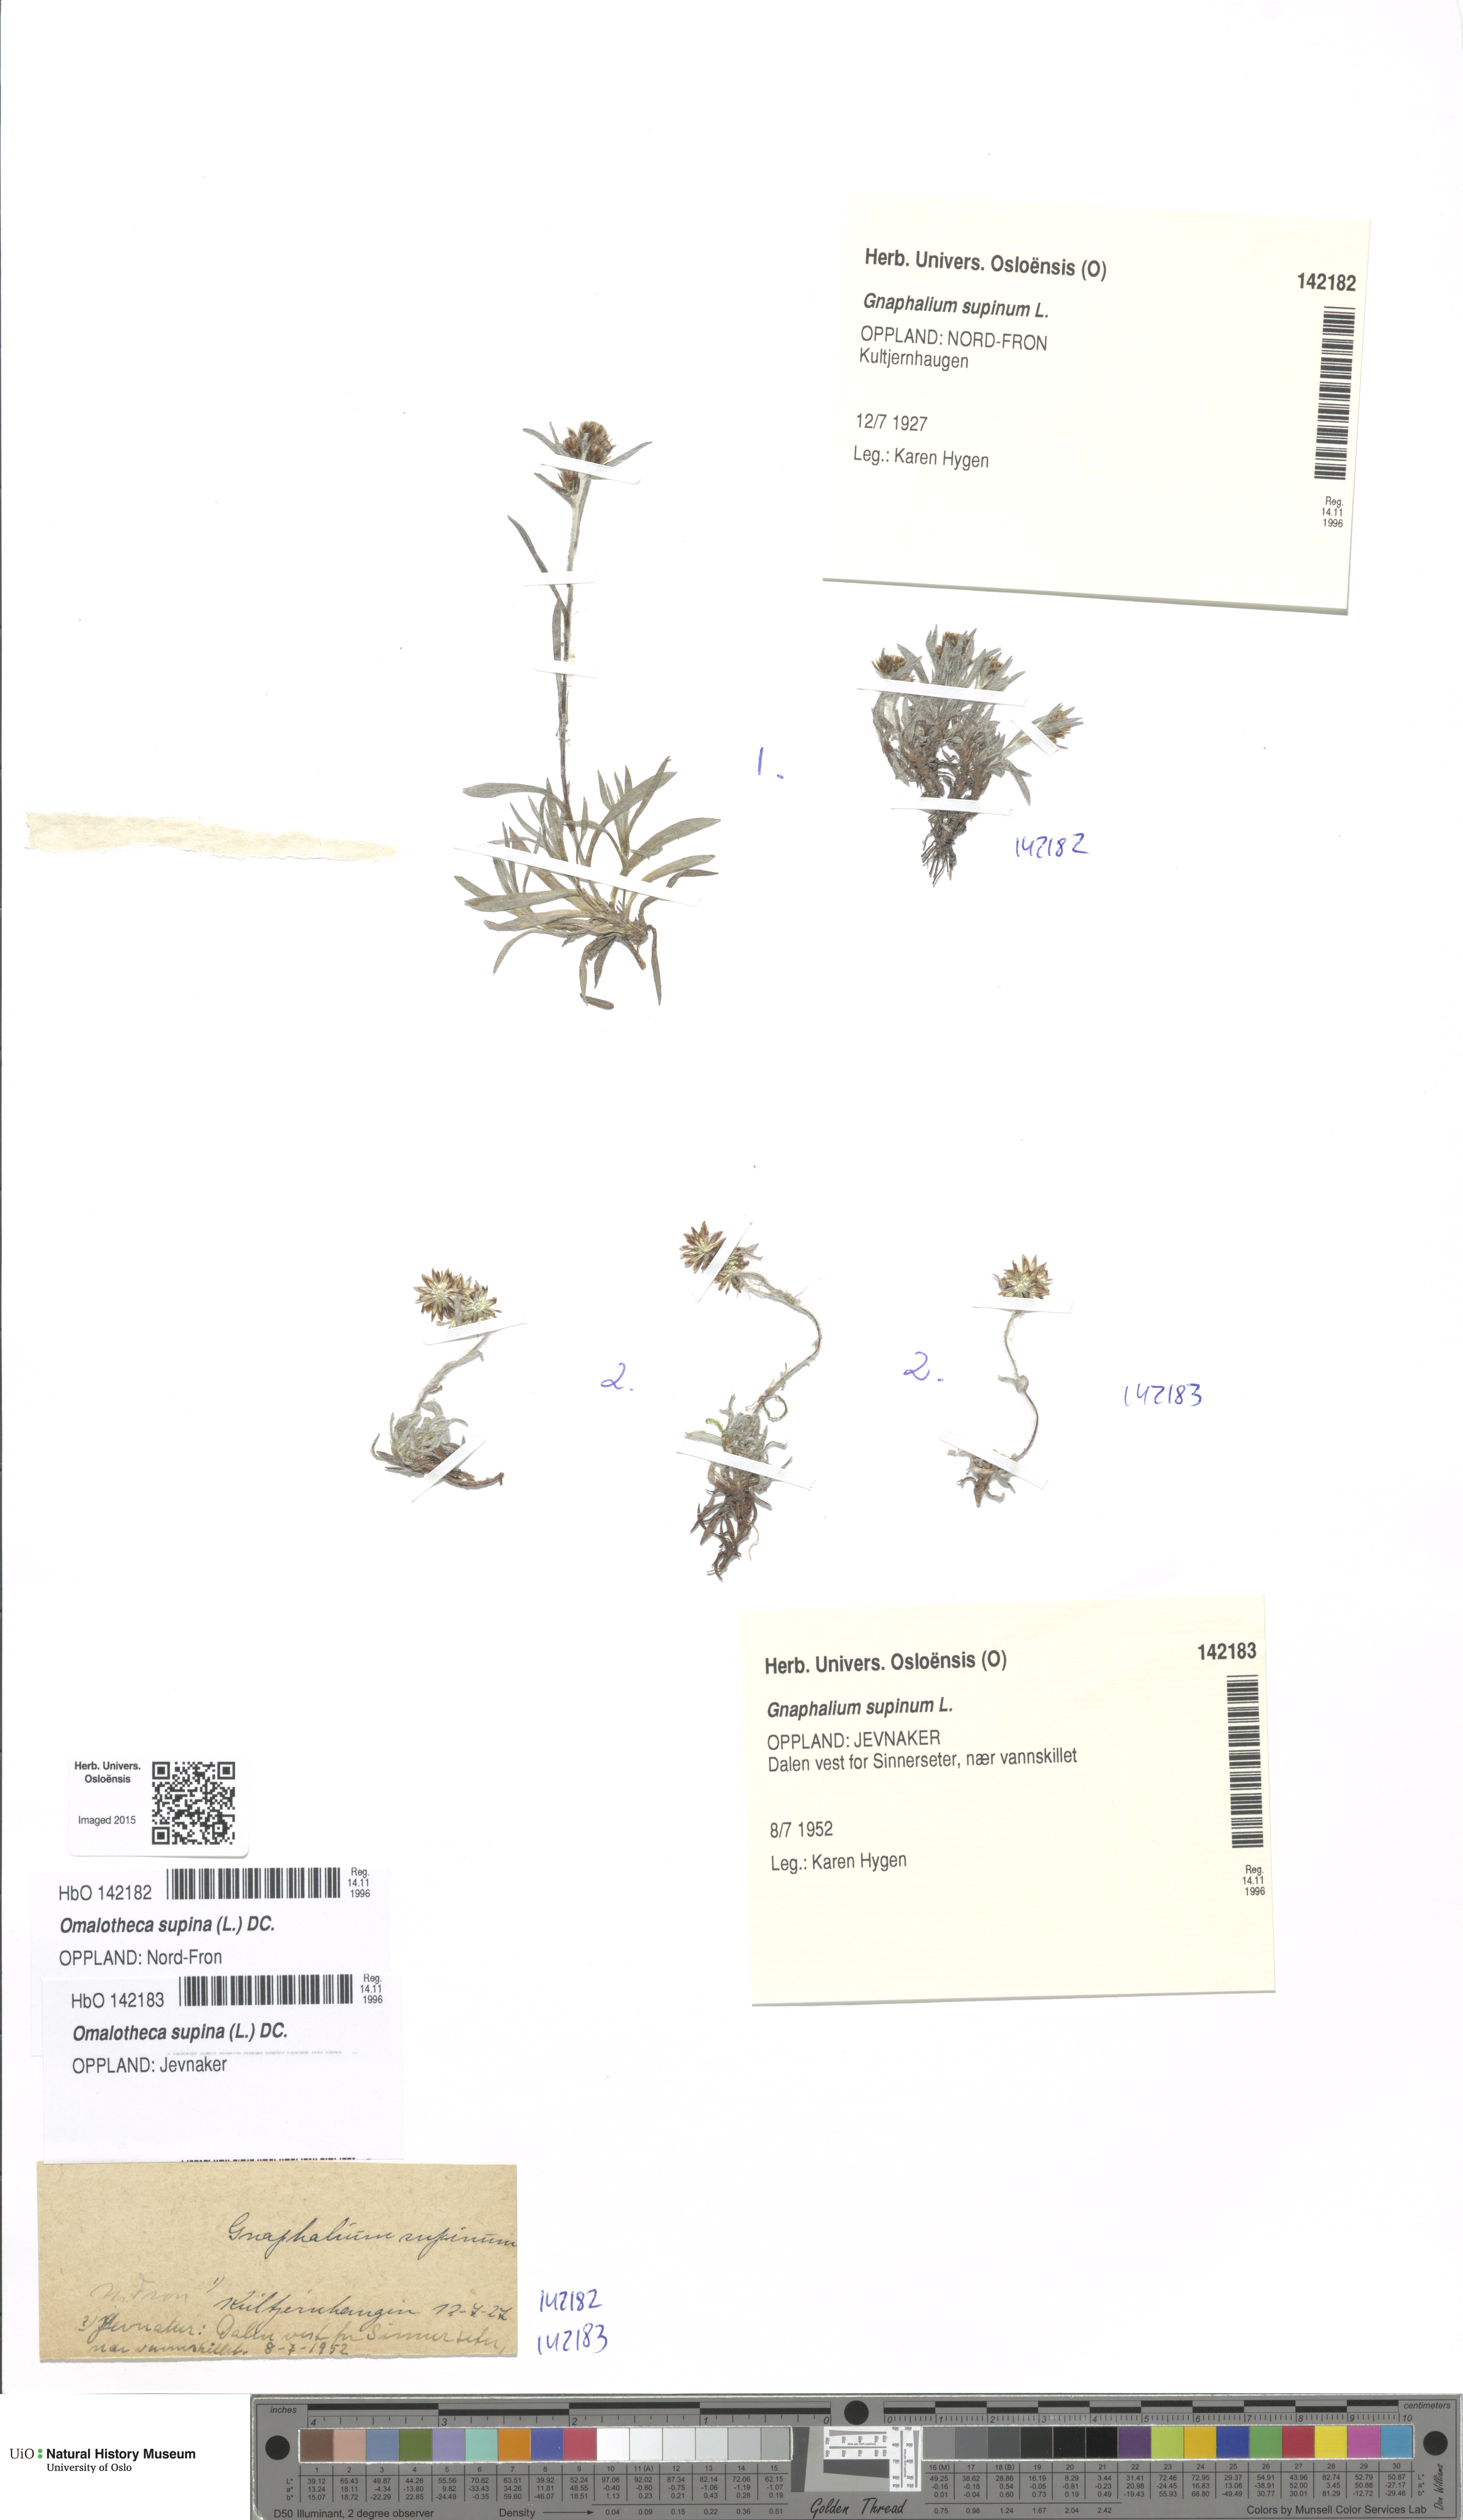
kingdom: Plantae
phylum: Tracheophyta
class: Magnoliopsida
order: Asterales
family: Asteraceae
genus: Omalotheca
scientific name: Omalotheca supina
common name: Alpine arctic-cudweed
